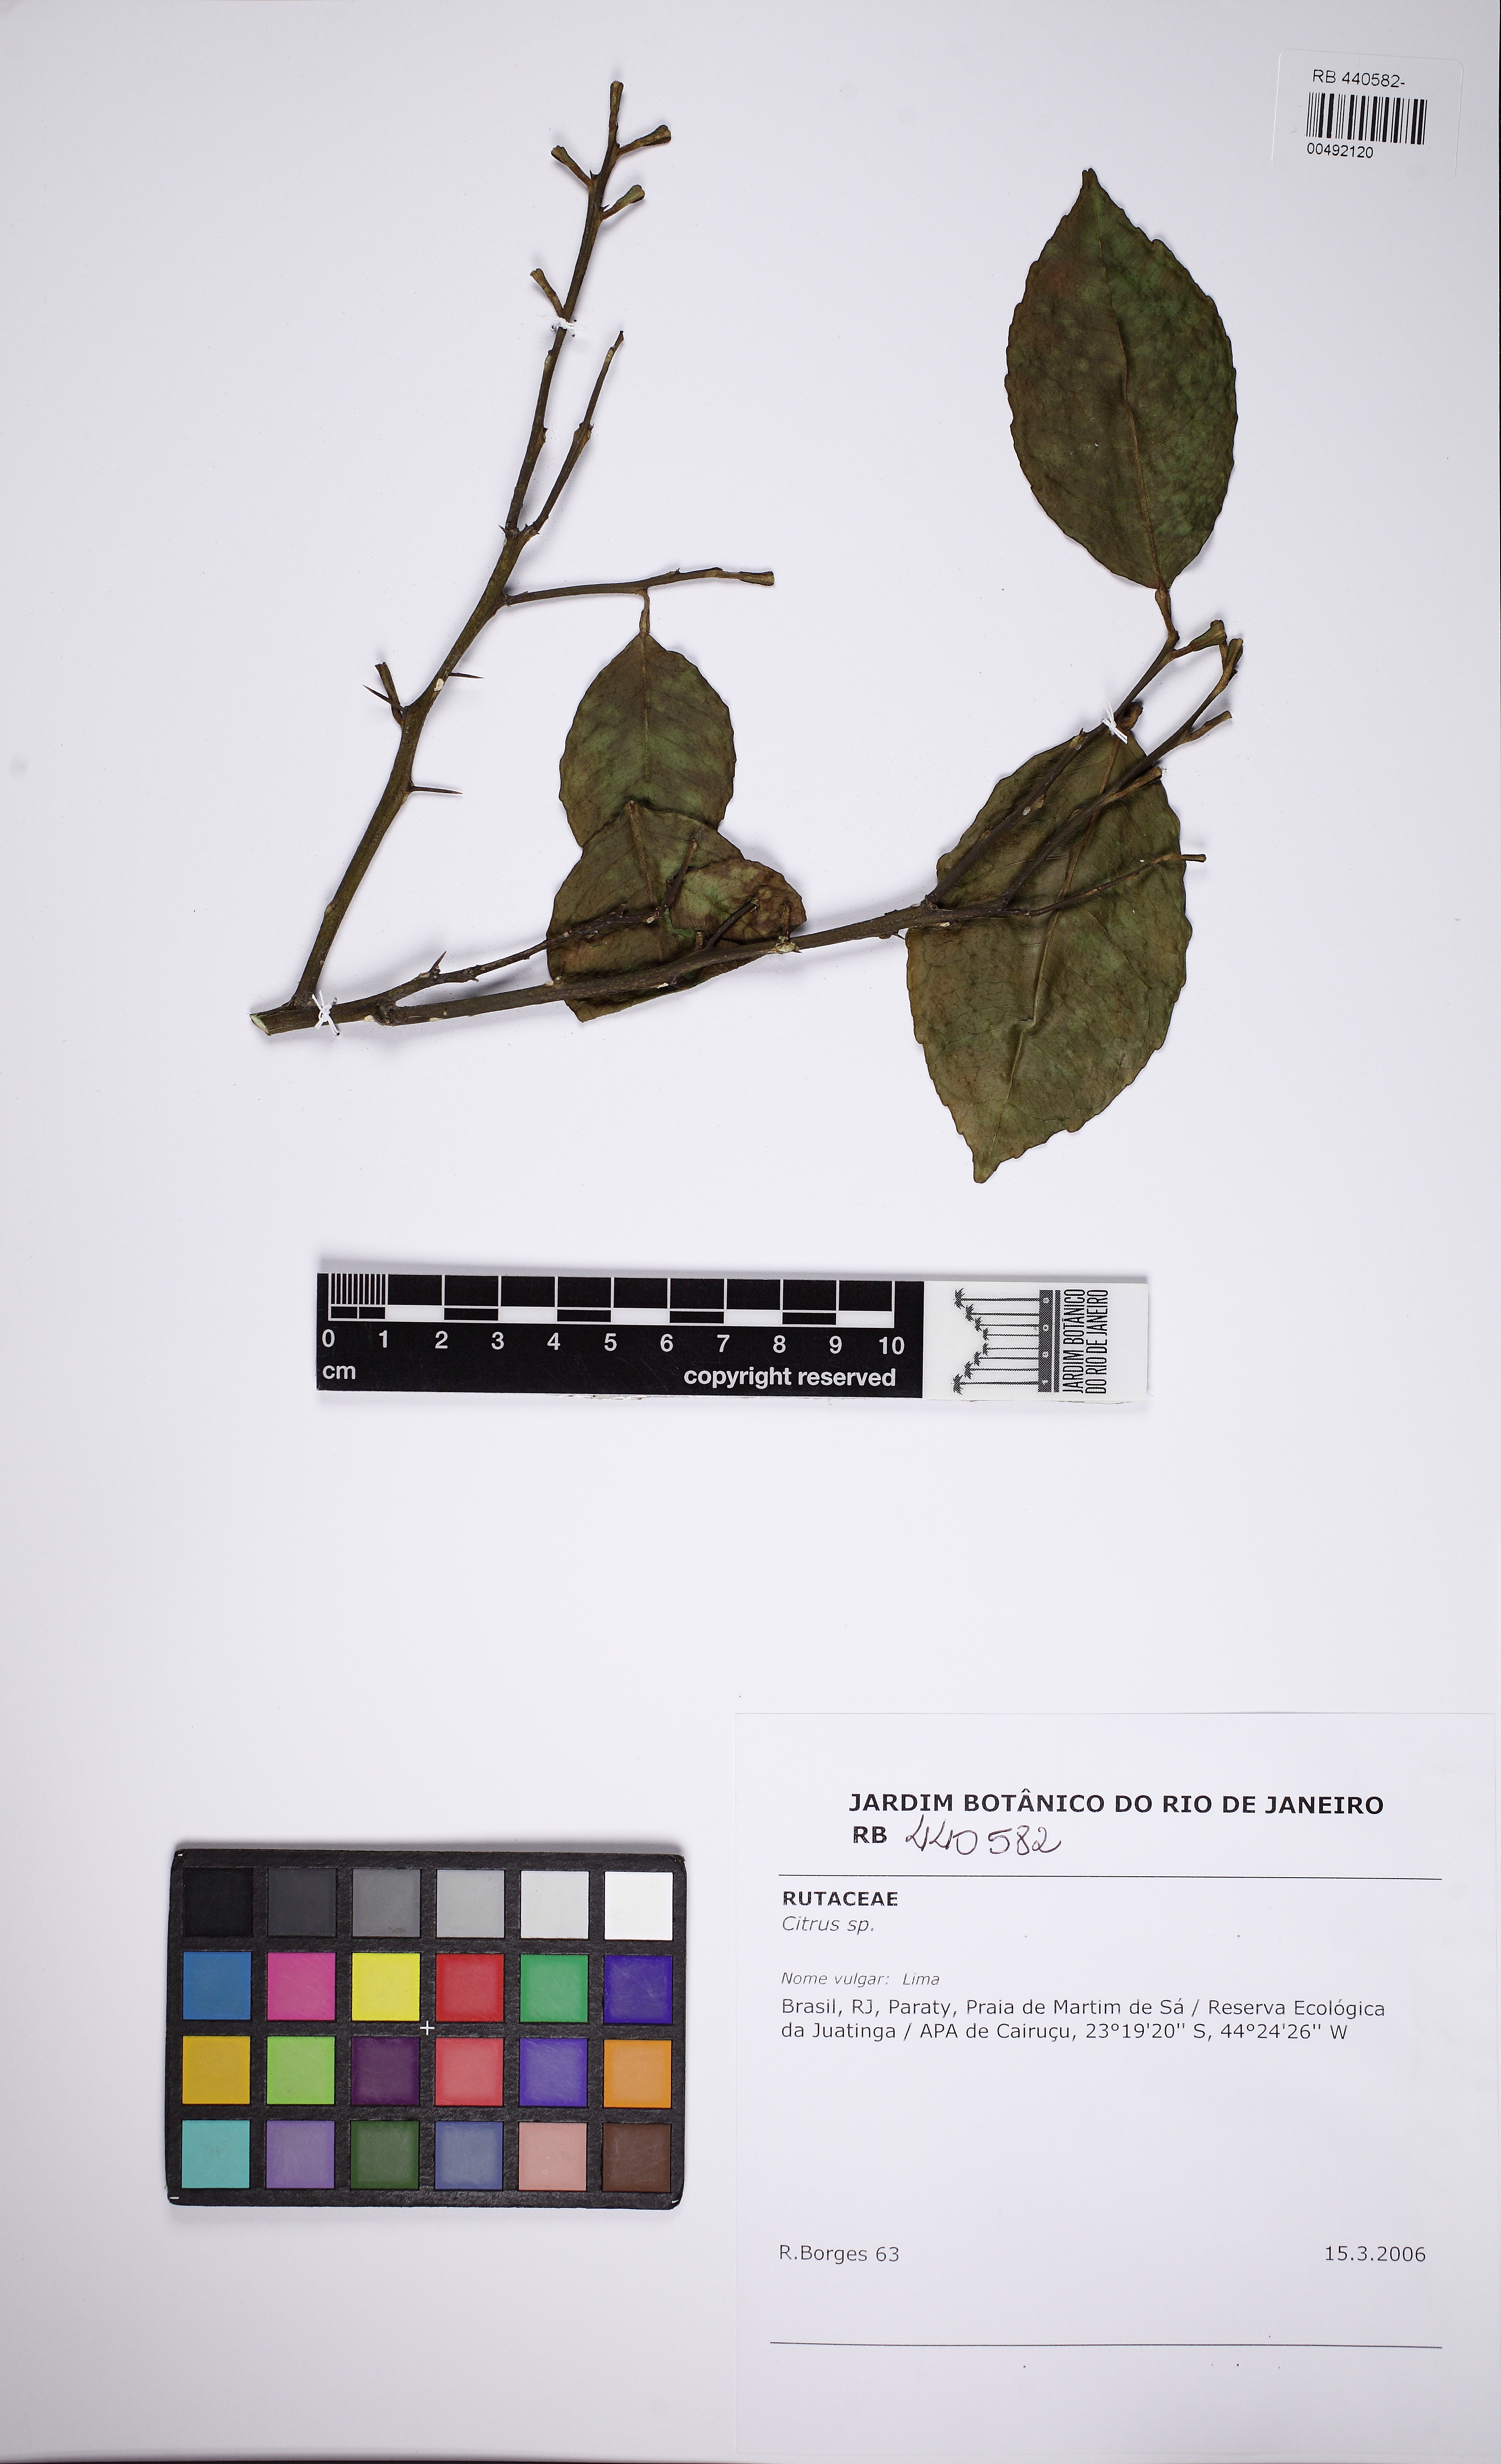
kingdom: Plantae
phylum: Tracheophyta
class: Magnoliopsida
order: Sapindales
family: Rutaceae
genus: Citrus
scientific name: Citrus
